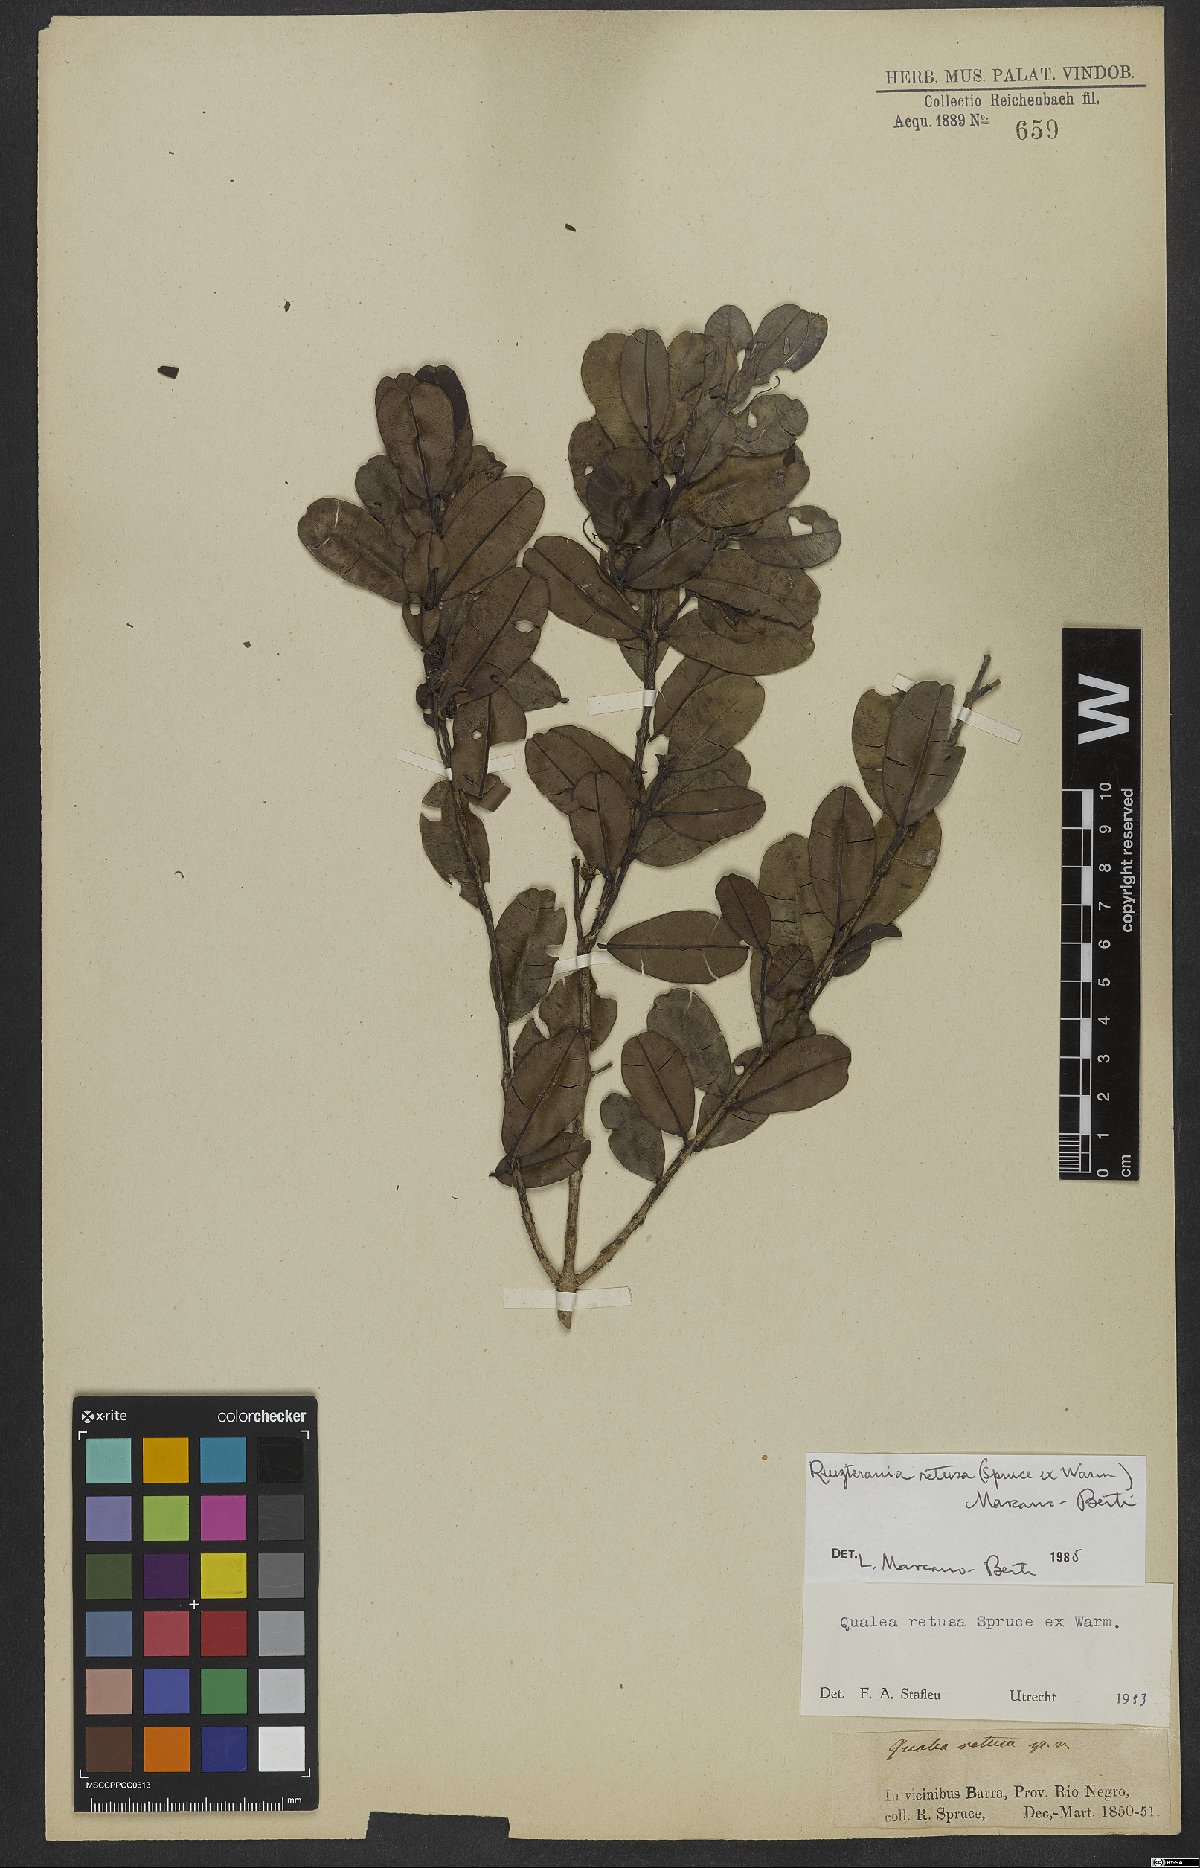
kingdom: Plantae
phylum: Tracheophyta
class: Magnoliopsida
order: Myrtales
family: Vochysiaceae
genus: Ruizterania
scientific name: Ruizterania retusa
